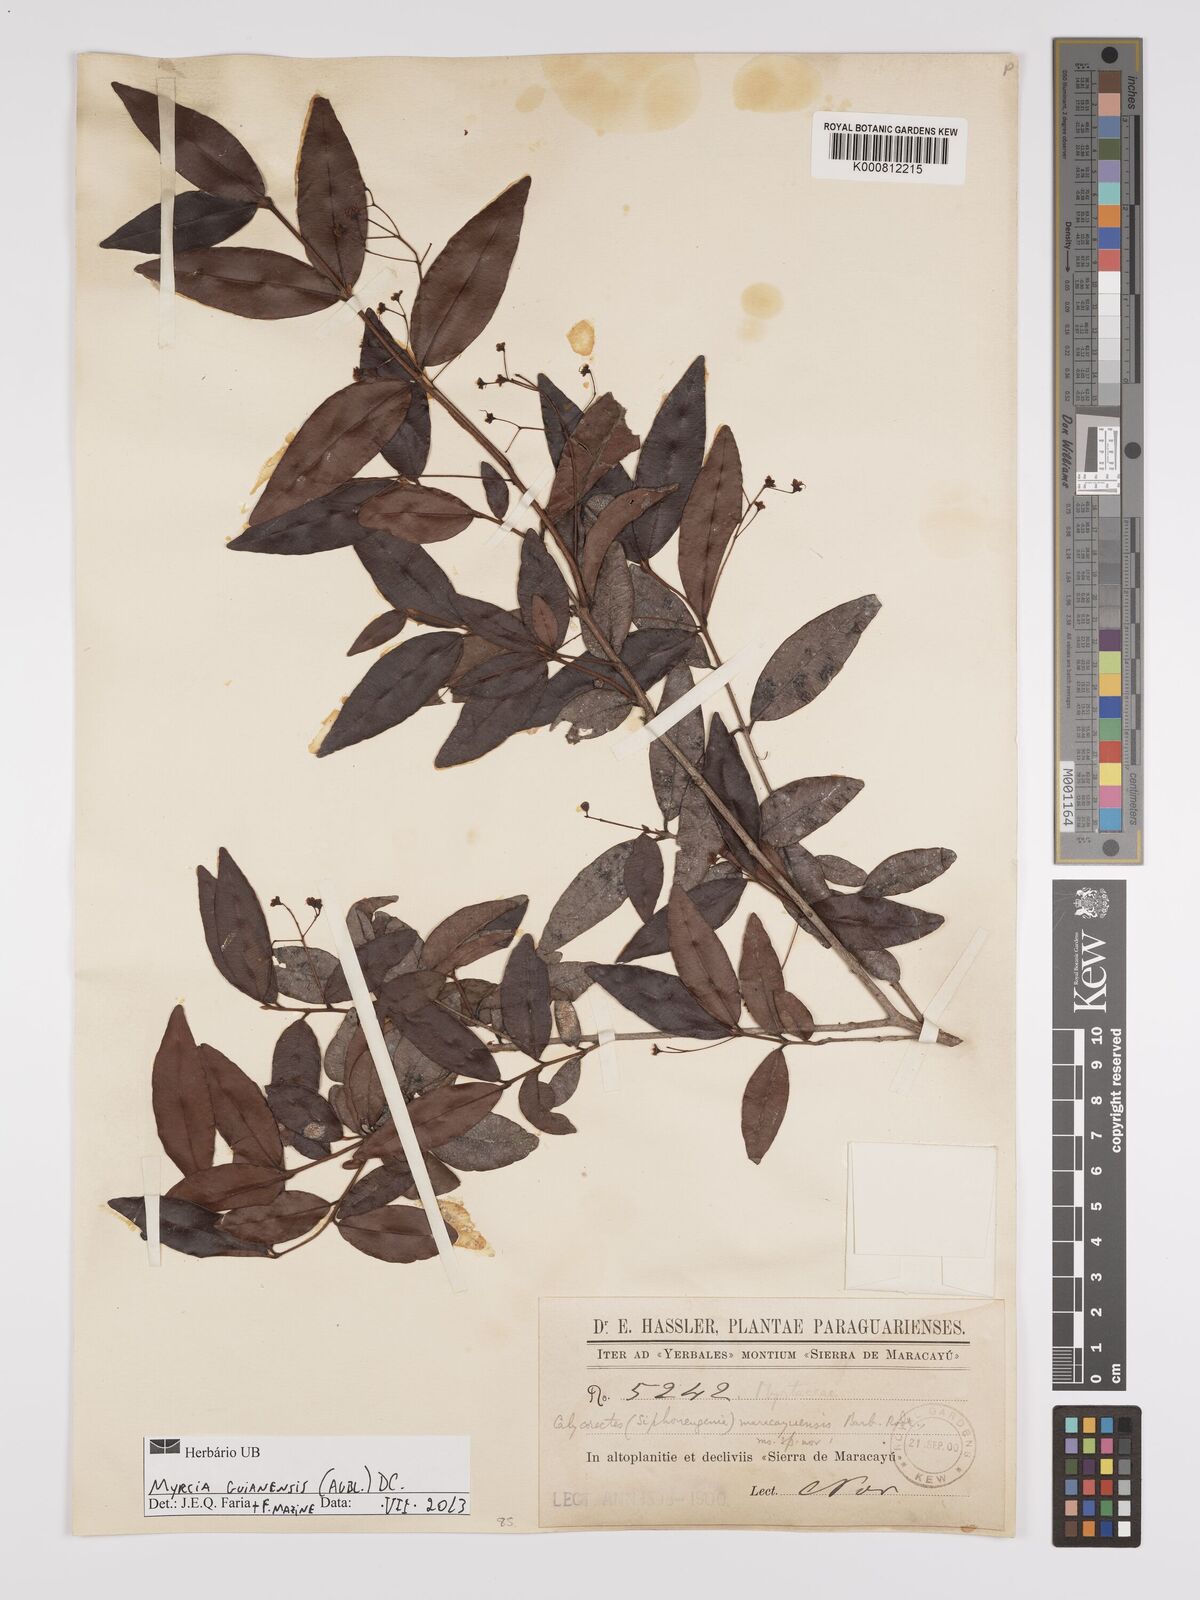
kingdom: Plantae
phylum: Tracheophyta
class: Magnoliopsida
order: Myrtales
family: Myrtaceae
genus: Myrcia
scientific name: Myrcia guianensis
